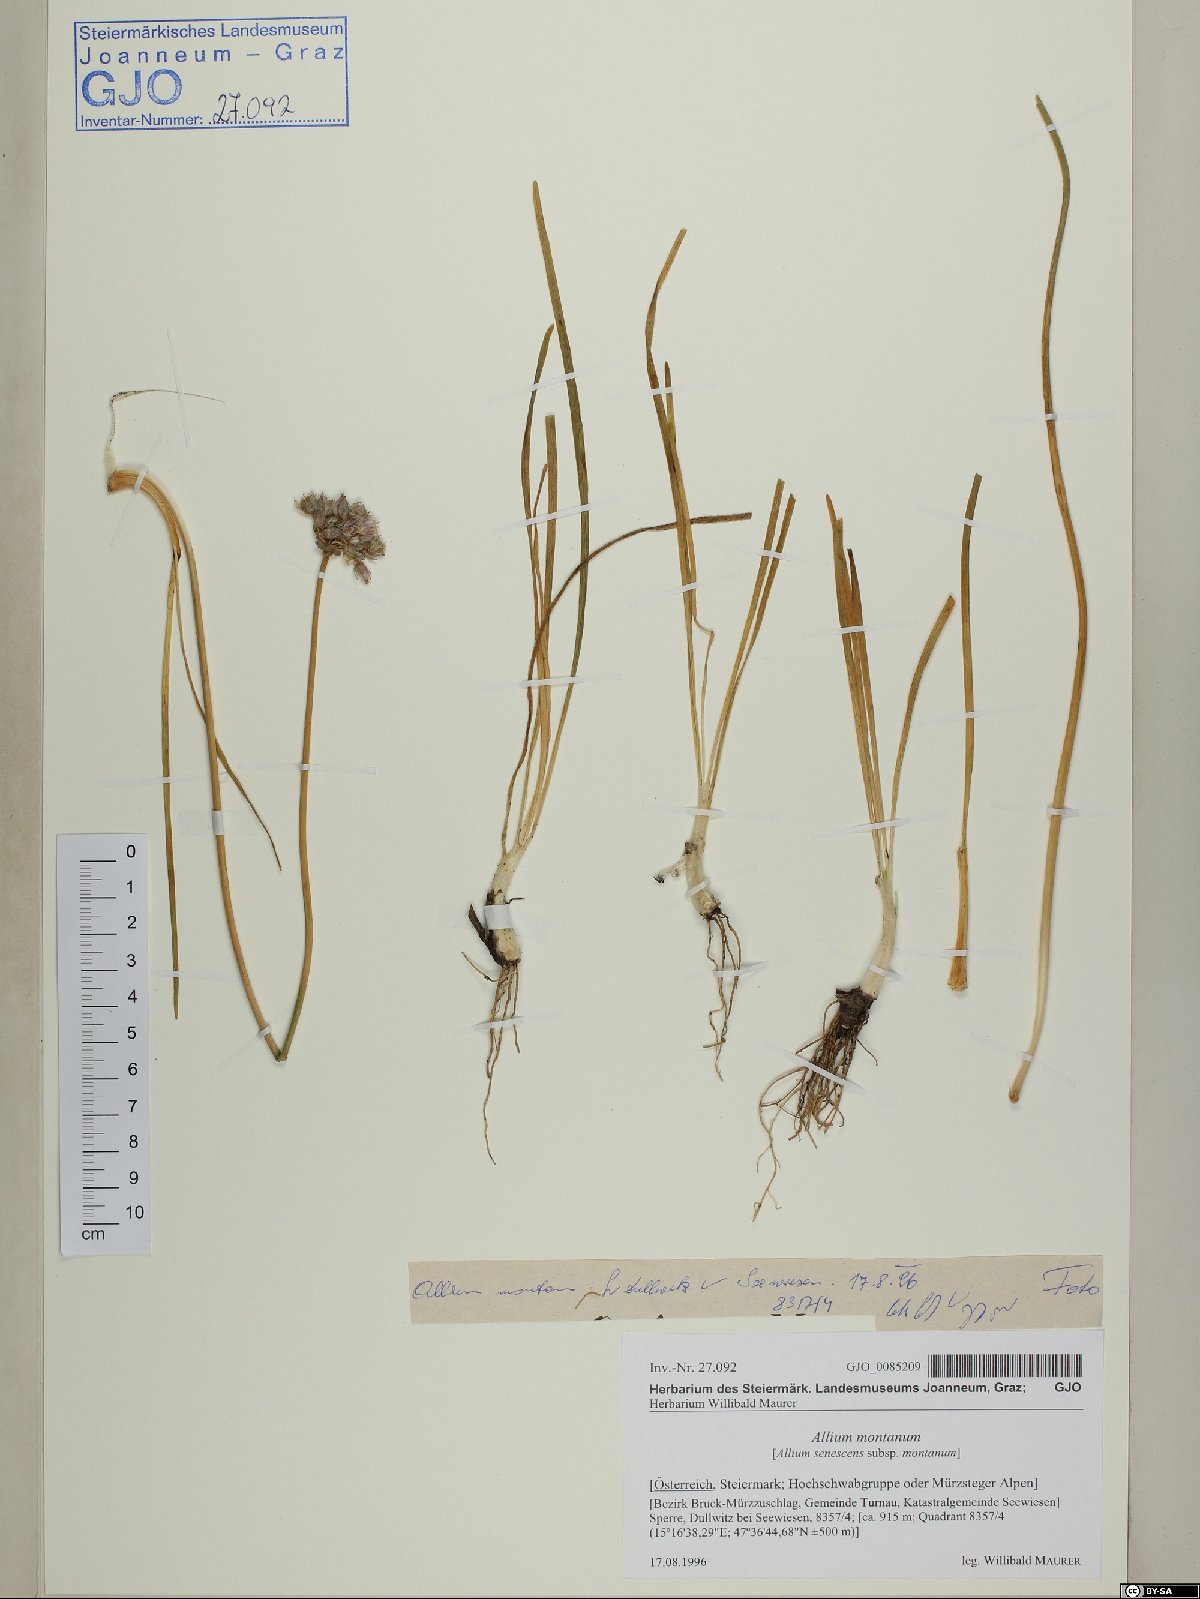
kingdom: Plantae
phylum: Tracheophyta
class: Liliopsida
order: Asparagales
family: Amaryllidaceae
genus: Allium
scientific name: Allium lusitanicum
